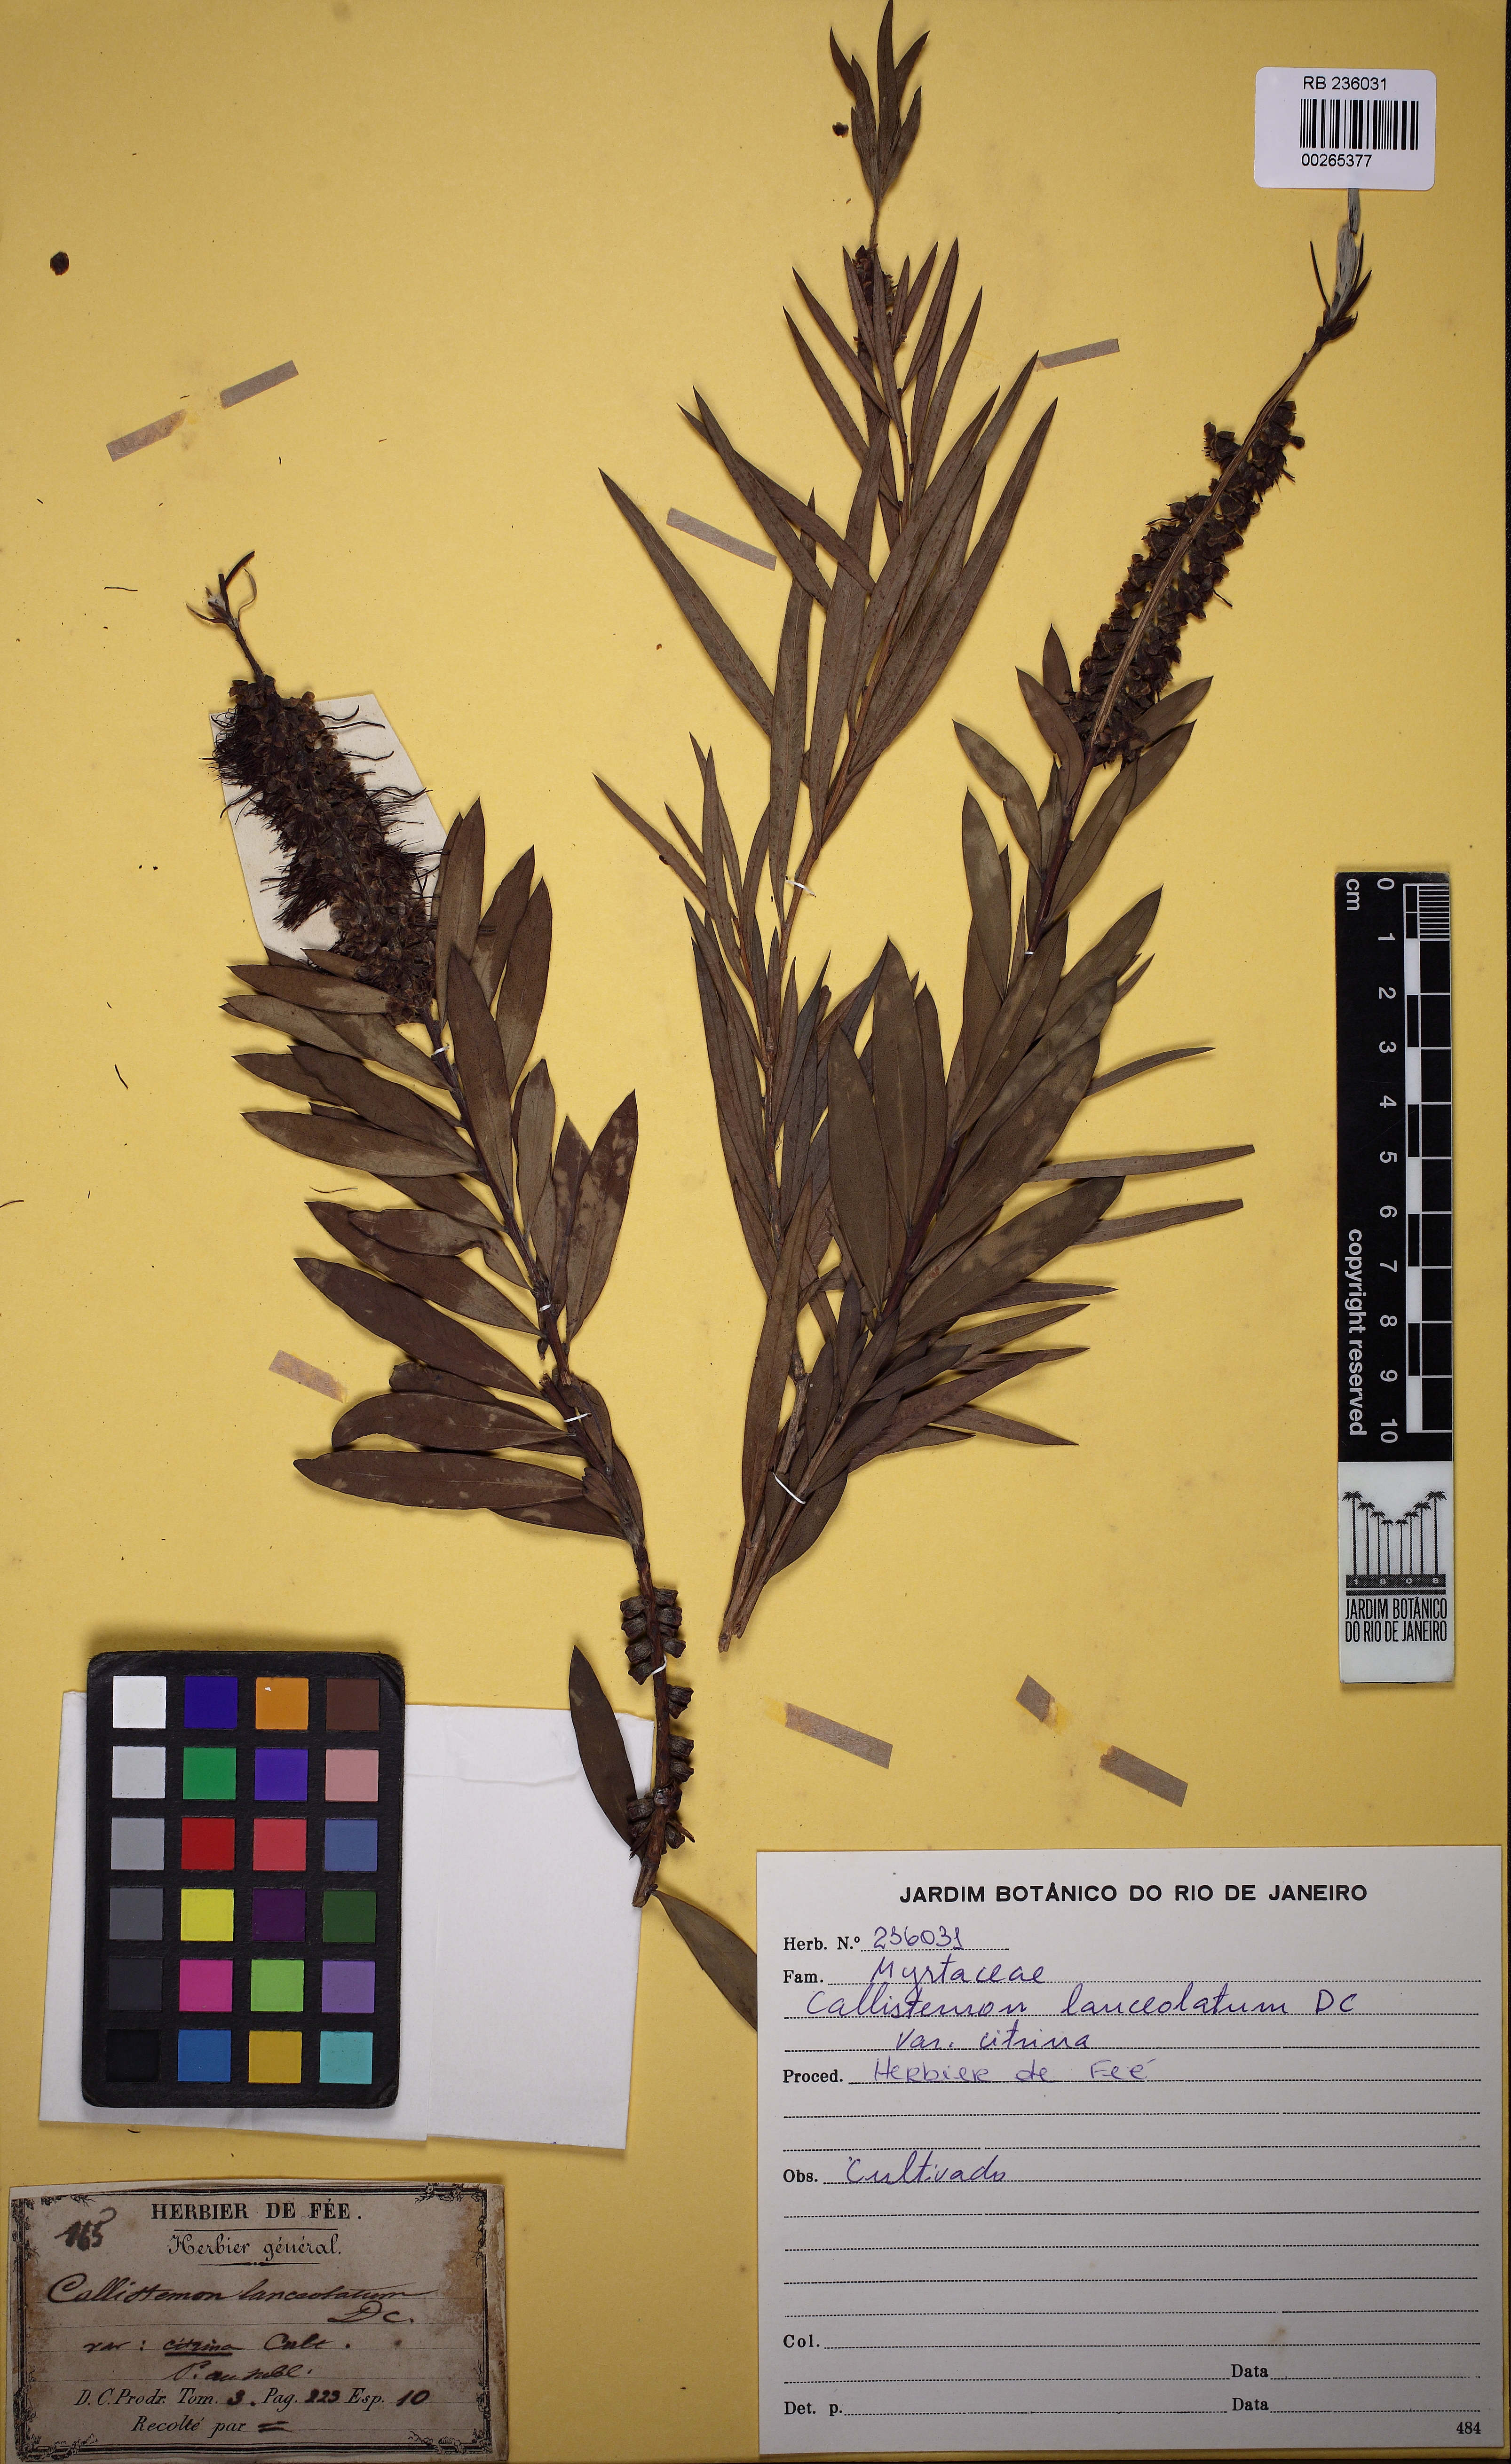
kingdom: Plantae
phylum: Tracheophyta
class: Magnoliopsida
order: Myrtales
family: Myrtaceae
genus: Callistemon
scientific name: Callistemon lanceolatus
